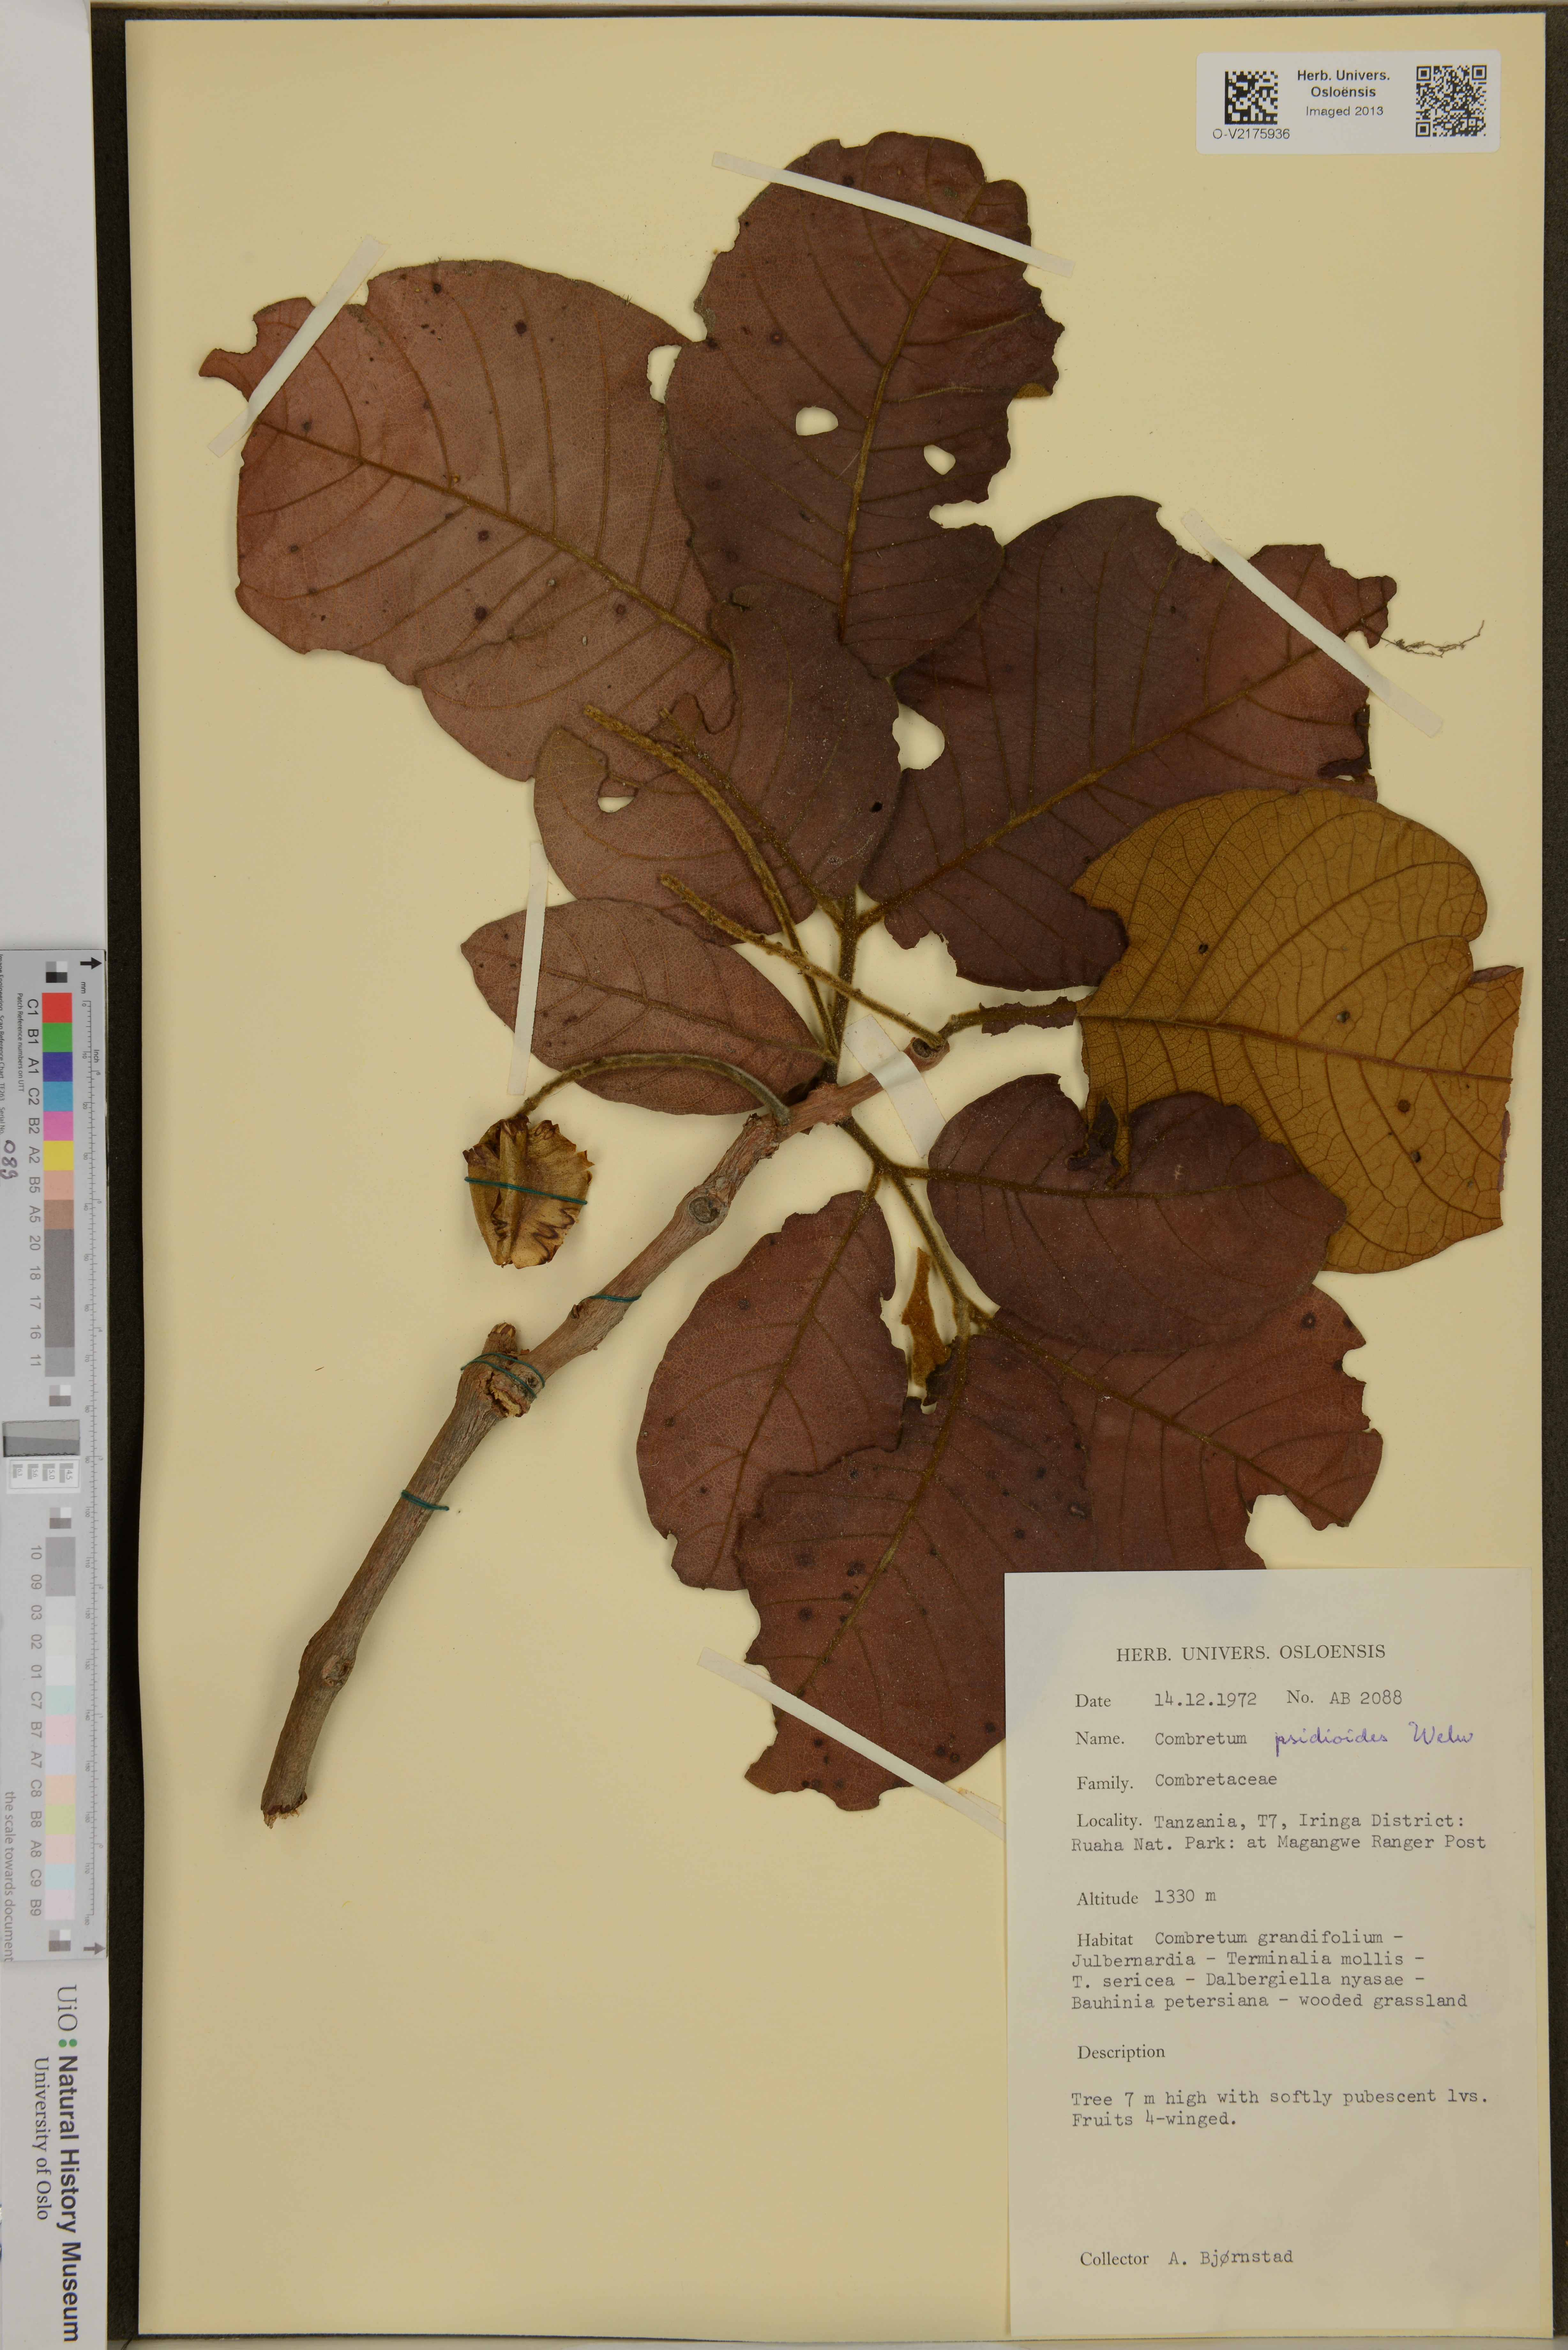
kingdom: Plantae
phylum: Tracheophyta
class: Magnoliopsida
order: Myrtales
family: Combretaceae
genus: Combretum
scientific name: Combretum psidioides
